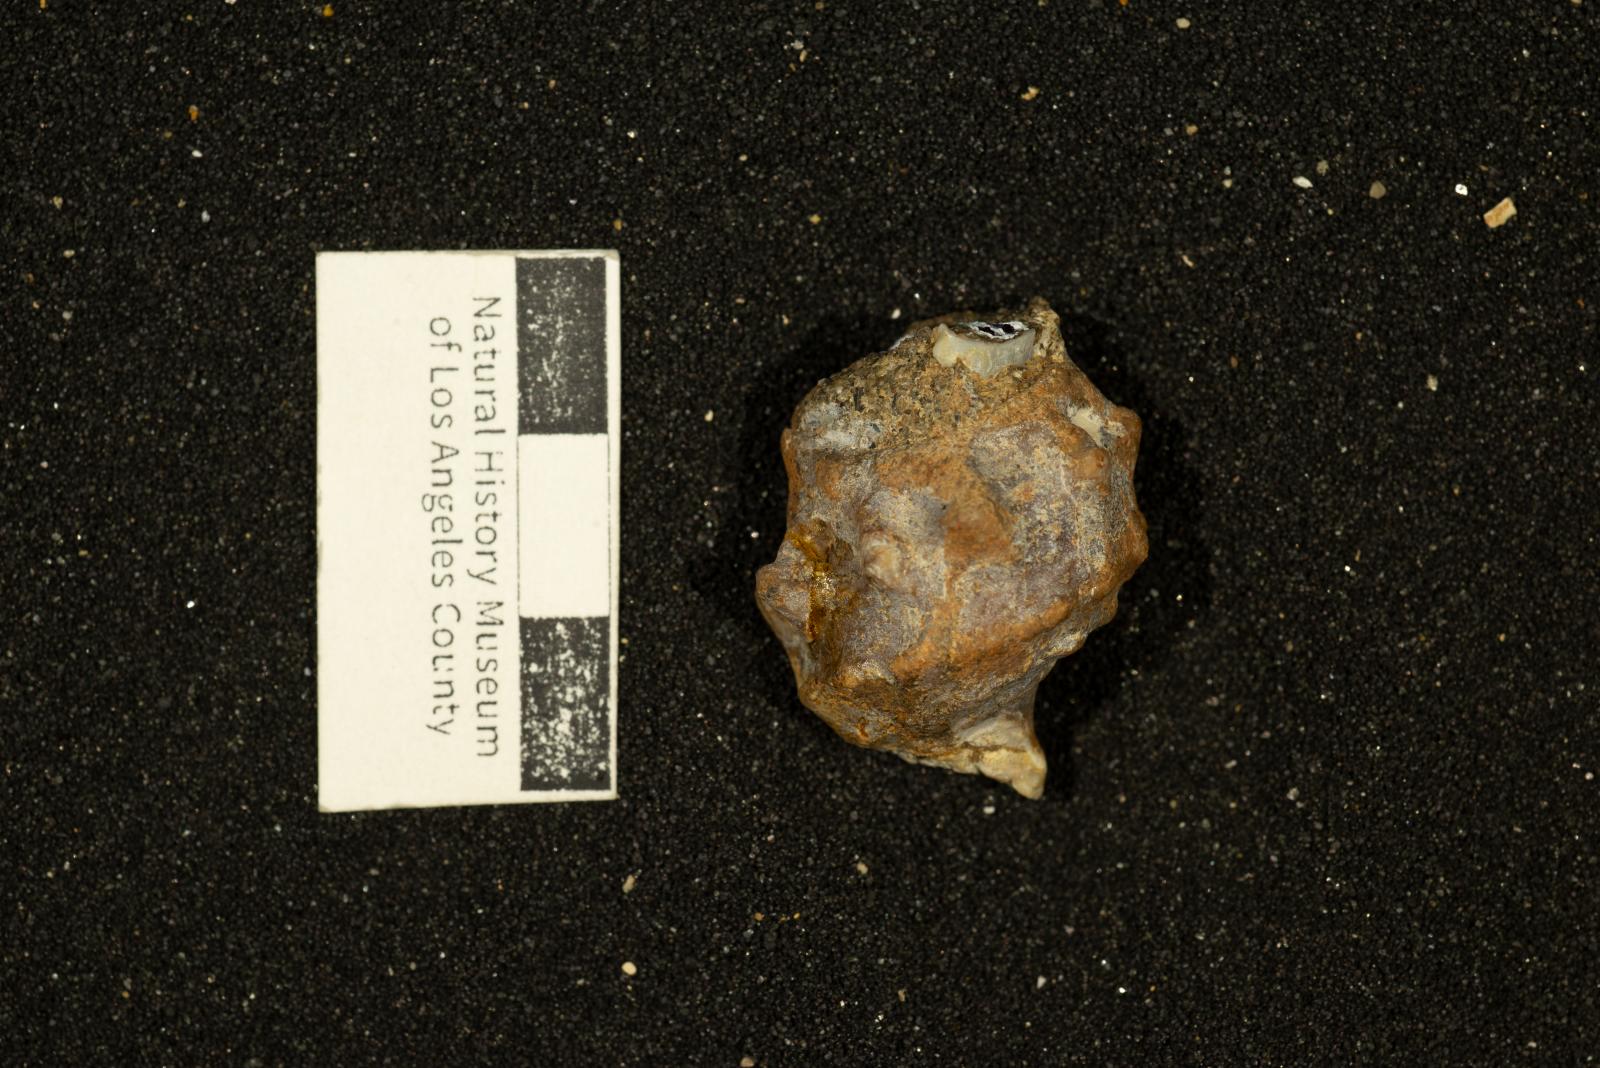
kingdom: Animalia
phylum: Mollusca
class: Gastropoda
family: Cerithiidae
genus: Bullamirifica
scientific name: Bullamirifica verruca
